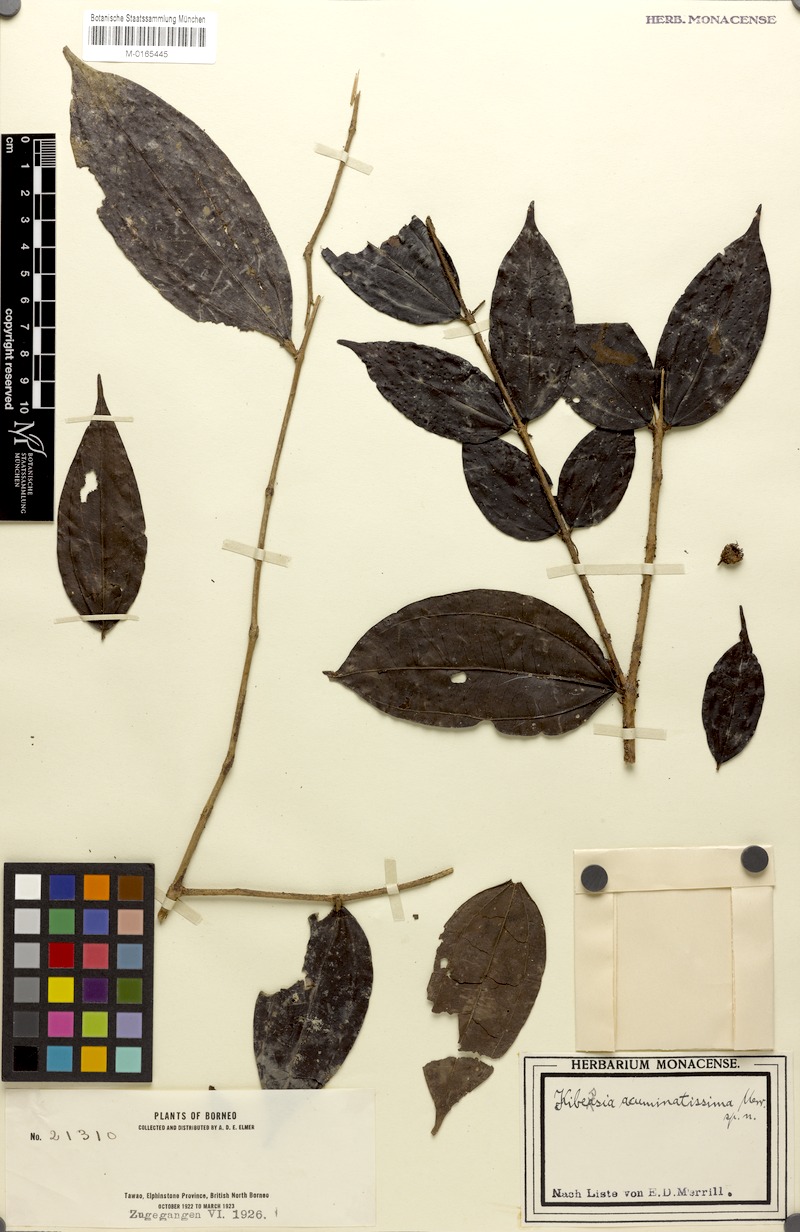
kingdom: Plantae
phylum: Tracheophyta
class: Magnoliopsida
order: Myrtales
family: Melastomataceae
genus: Pternandra
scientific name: Pternandra azurea
